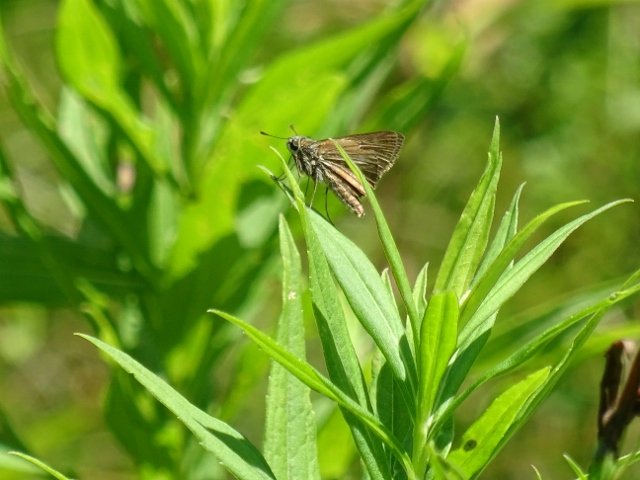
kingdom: Animalia
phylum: Arthropoda
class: Insecta
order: Lepidoptera
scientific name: Lepidoptera
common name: Butterflies
